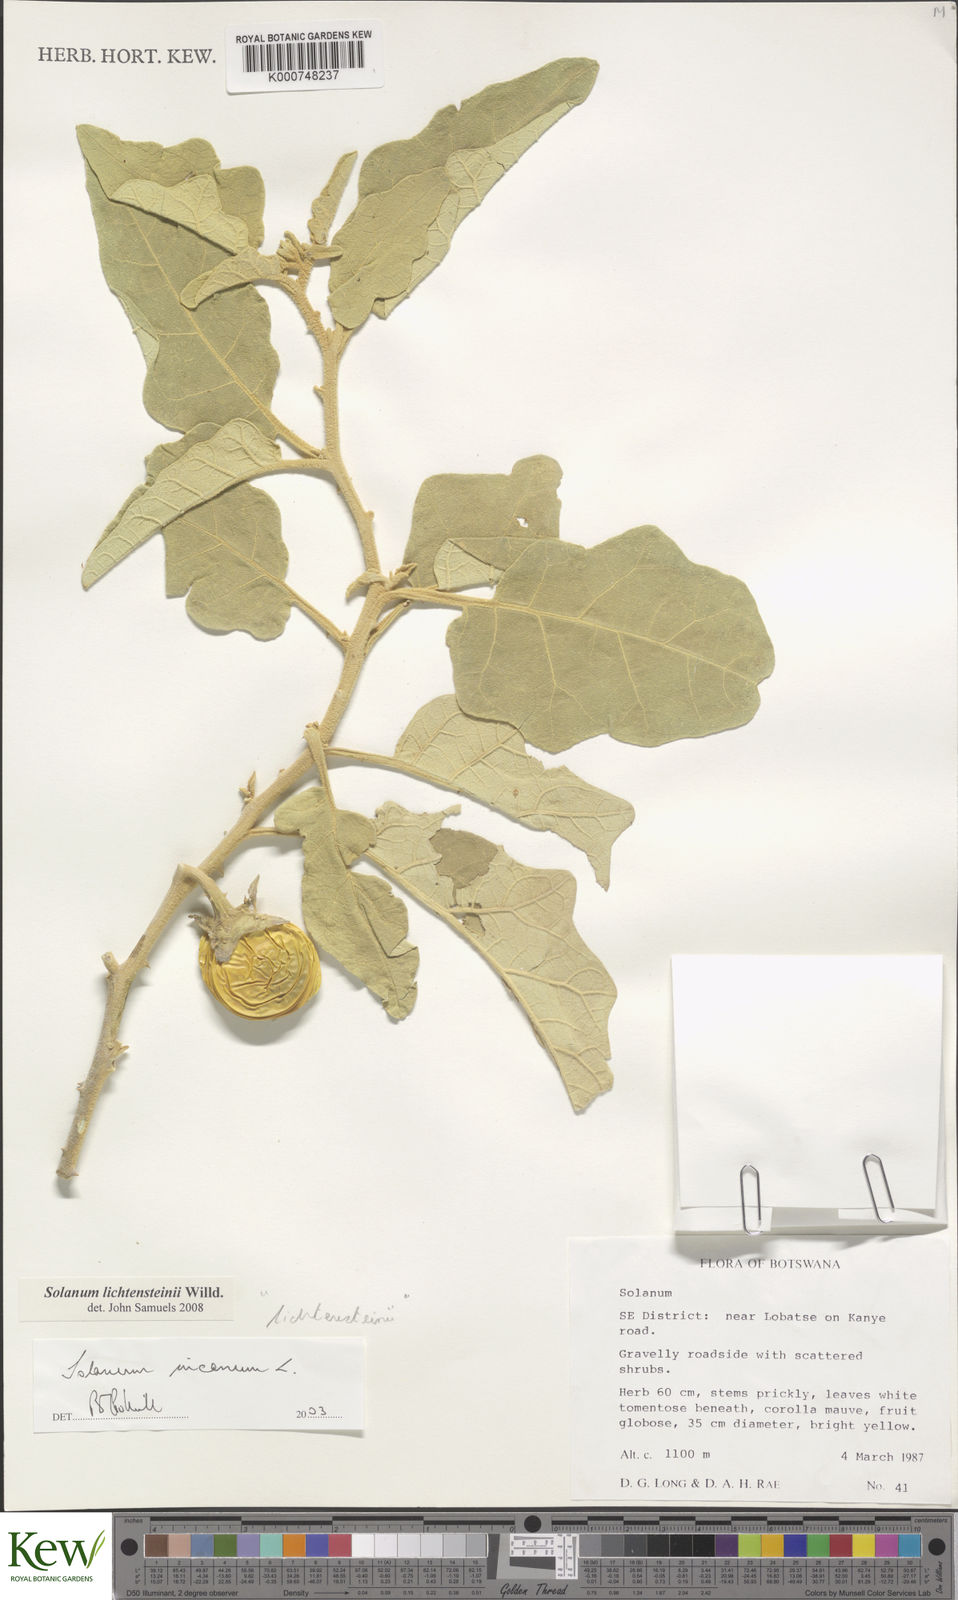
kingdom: Plantae
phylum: Tracheophyta
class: Magnoliopsida
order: Solanales
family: Solanaceae
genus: Solanum
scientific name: Solanum lichtensteinii
